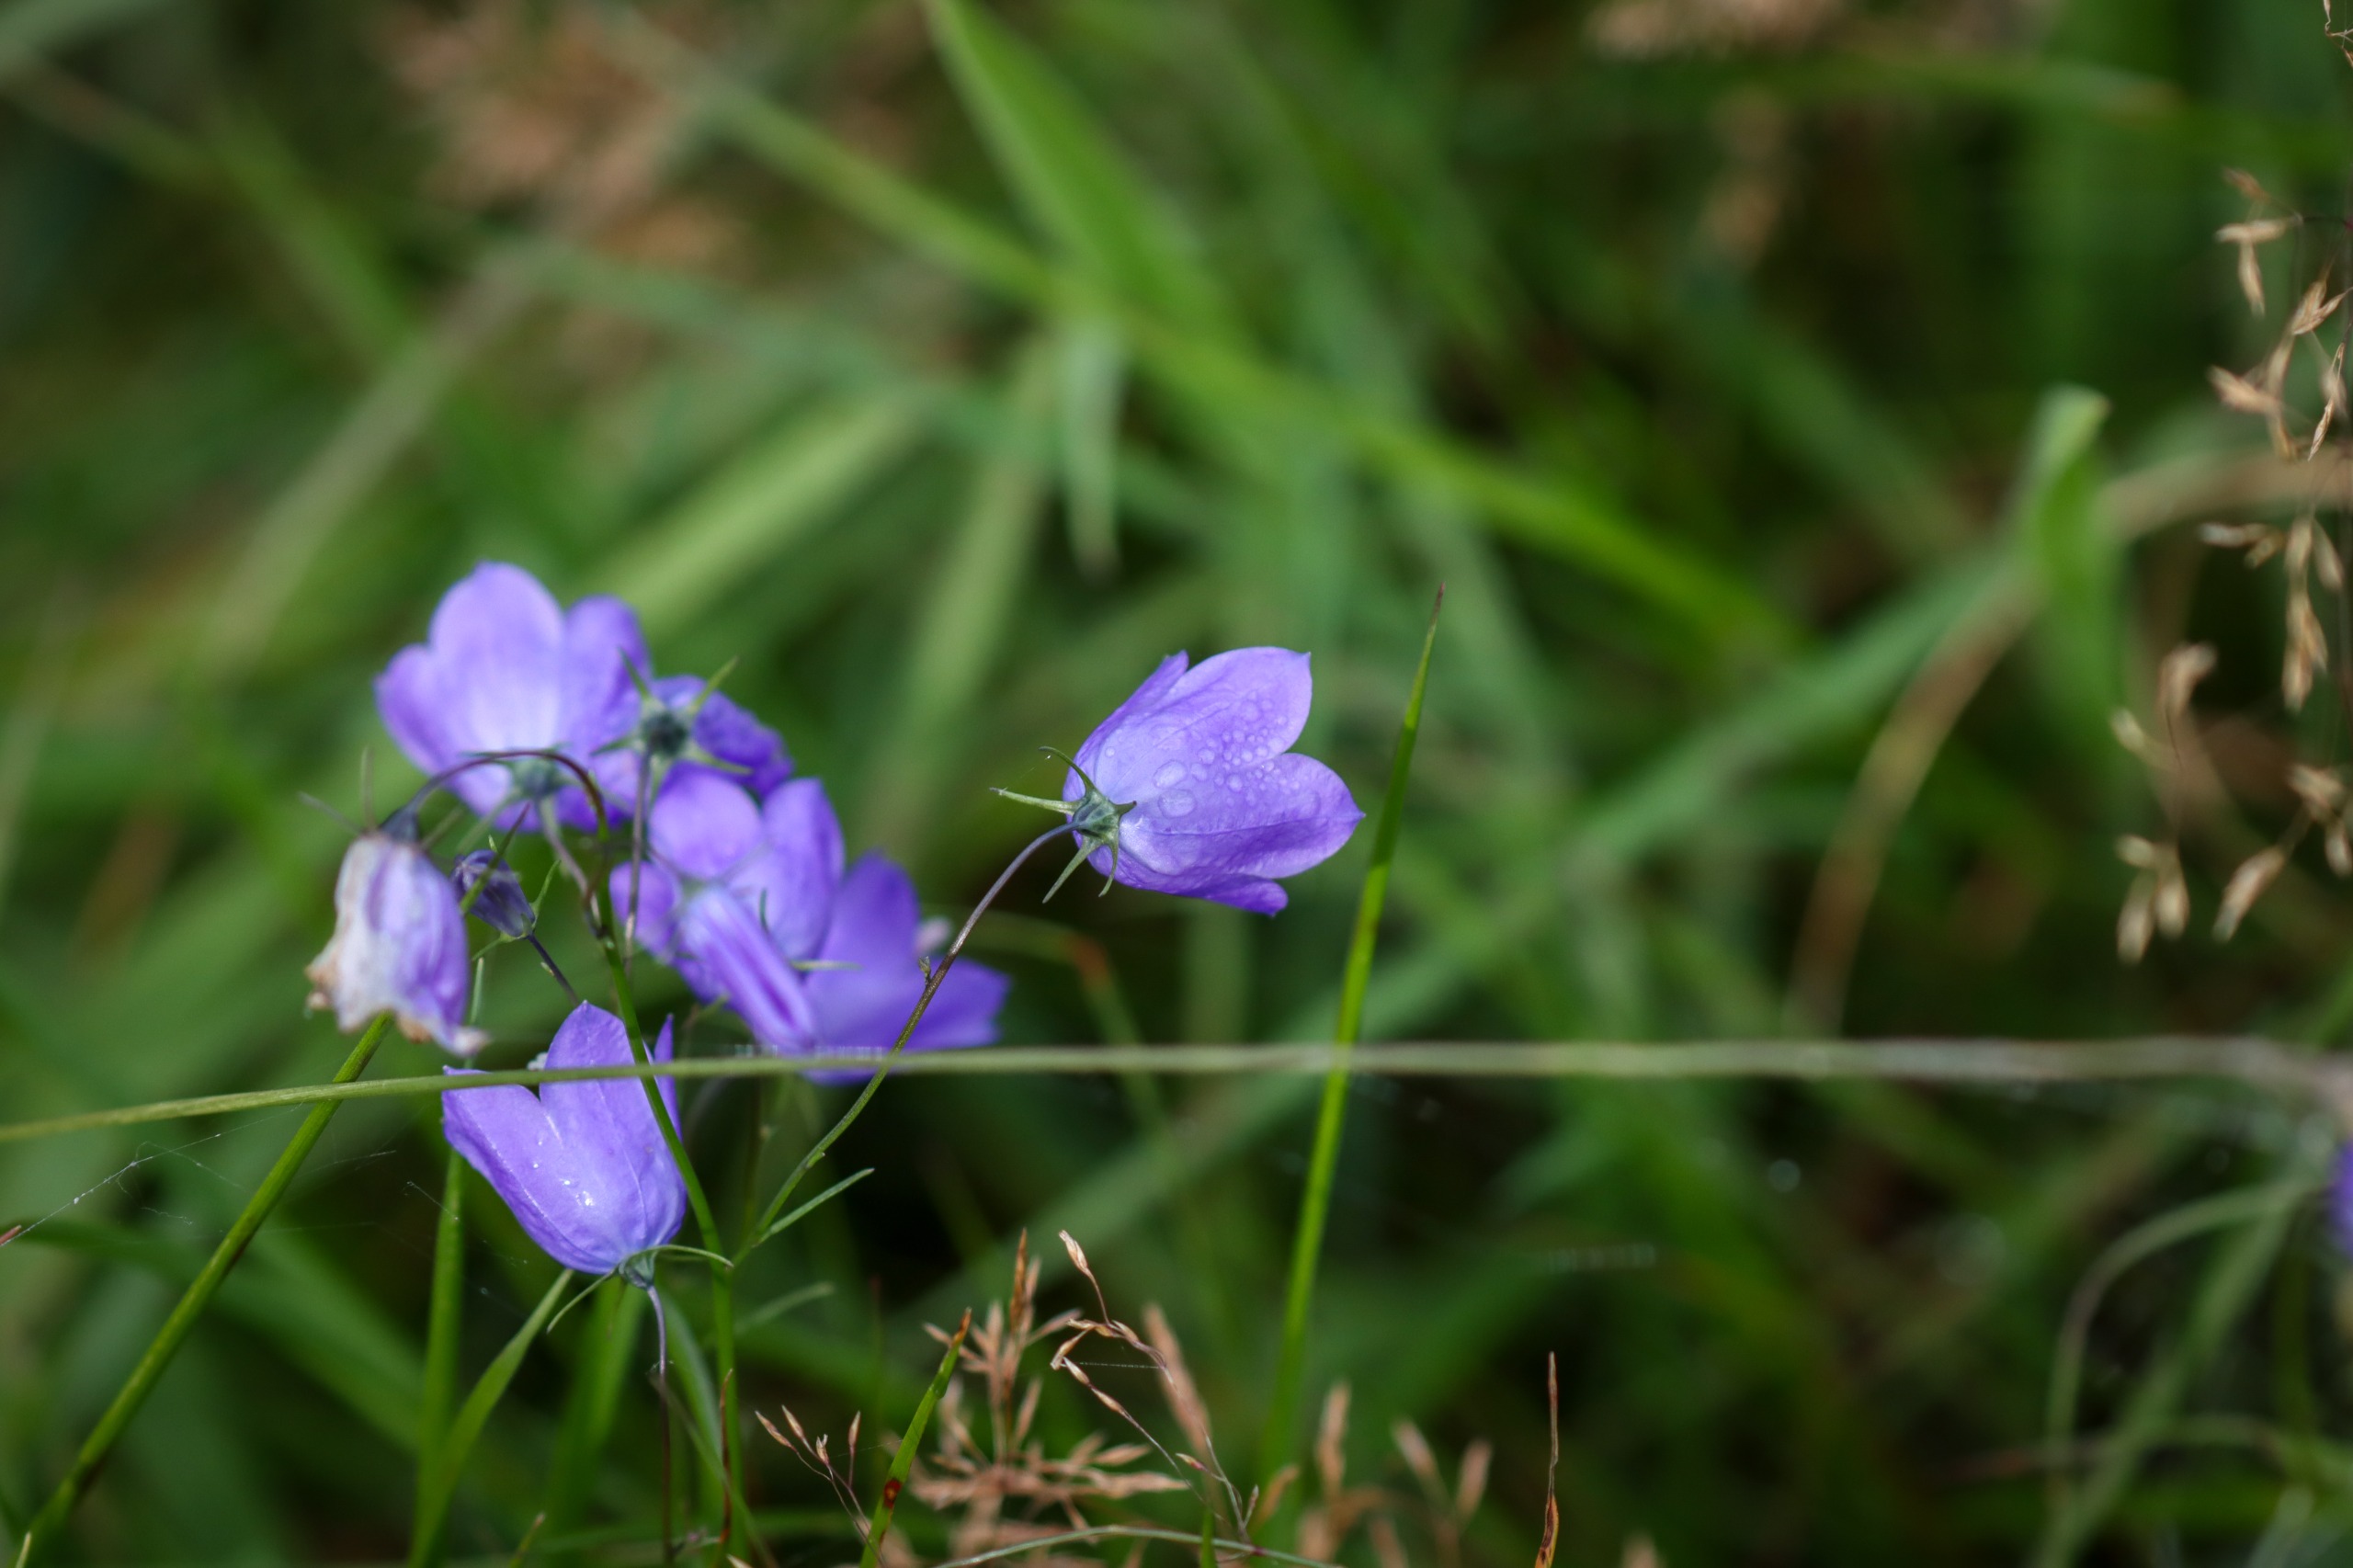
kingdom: Plantae
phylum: Tracheophyta
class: Magnoliopsida
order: Asterales
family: Campanulaceae
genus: Campanula
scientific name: Campanula rotundifolia
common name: Liden klokke
